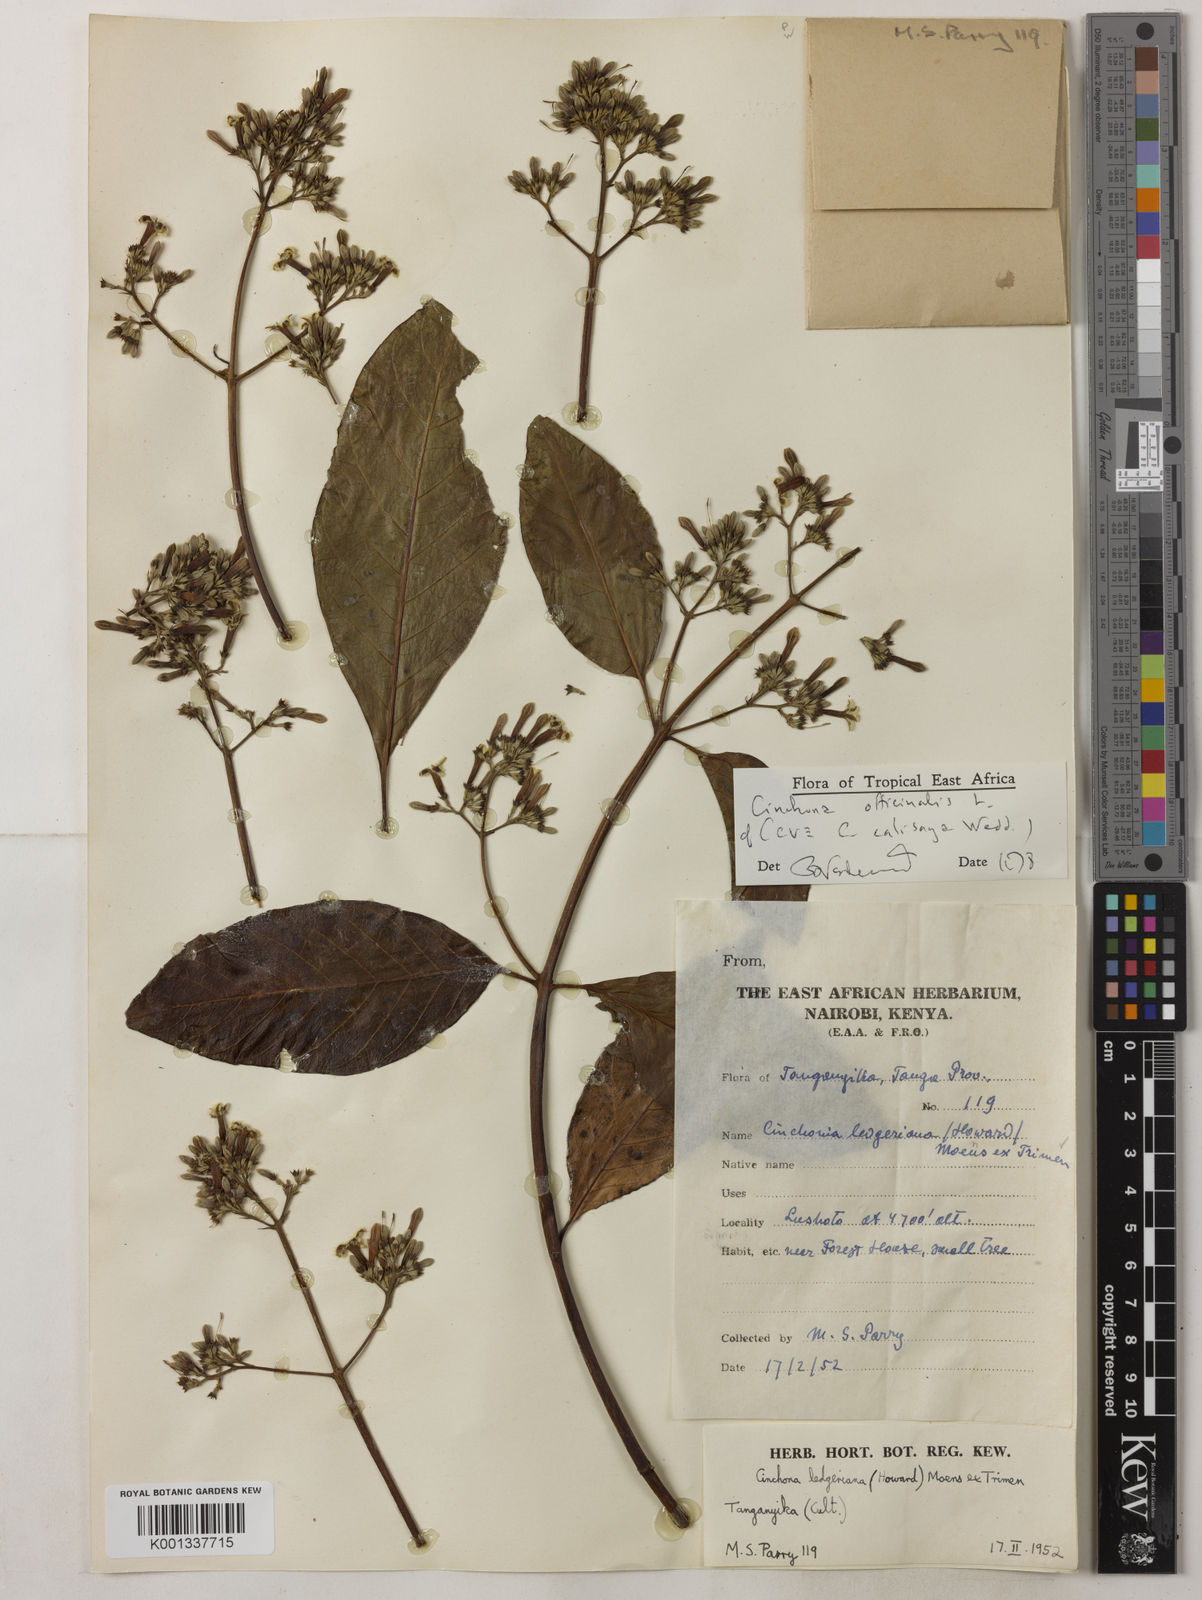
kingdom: Plantae
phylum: Tracheophyta
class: Magnoliopsida
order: Gentianales
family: Rubiaceae
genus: Cinchona
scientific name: Cinchona calisaya
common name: Ledgerbark
